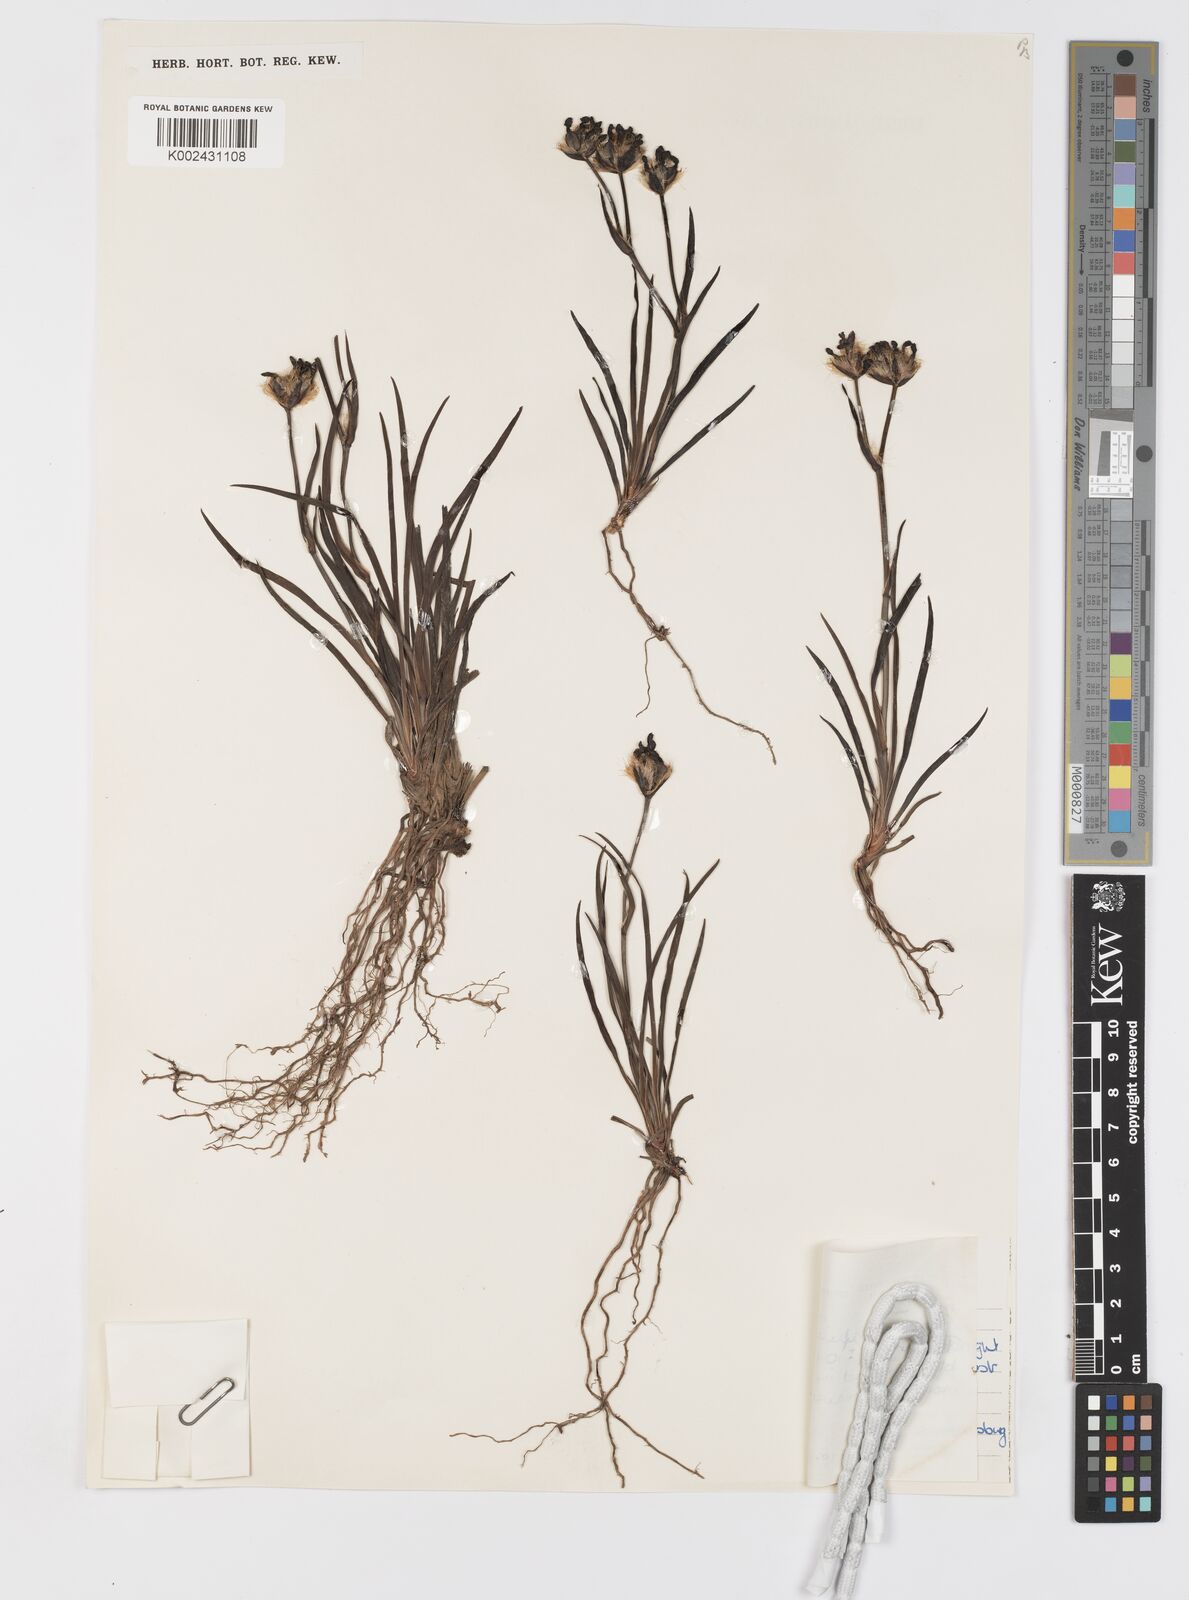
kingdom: Plantae
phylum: Tracheophyta
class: Liliopsida
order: Asparagales
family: Iridaceae
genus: Aristea
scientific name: Aristea africana
